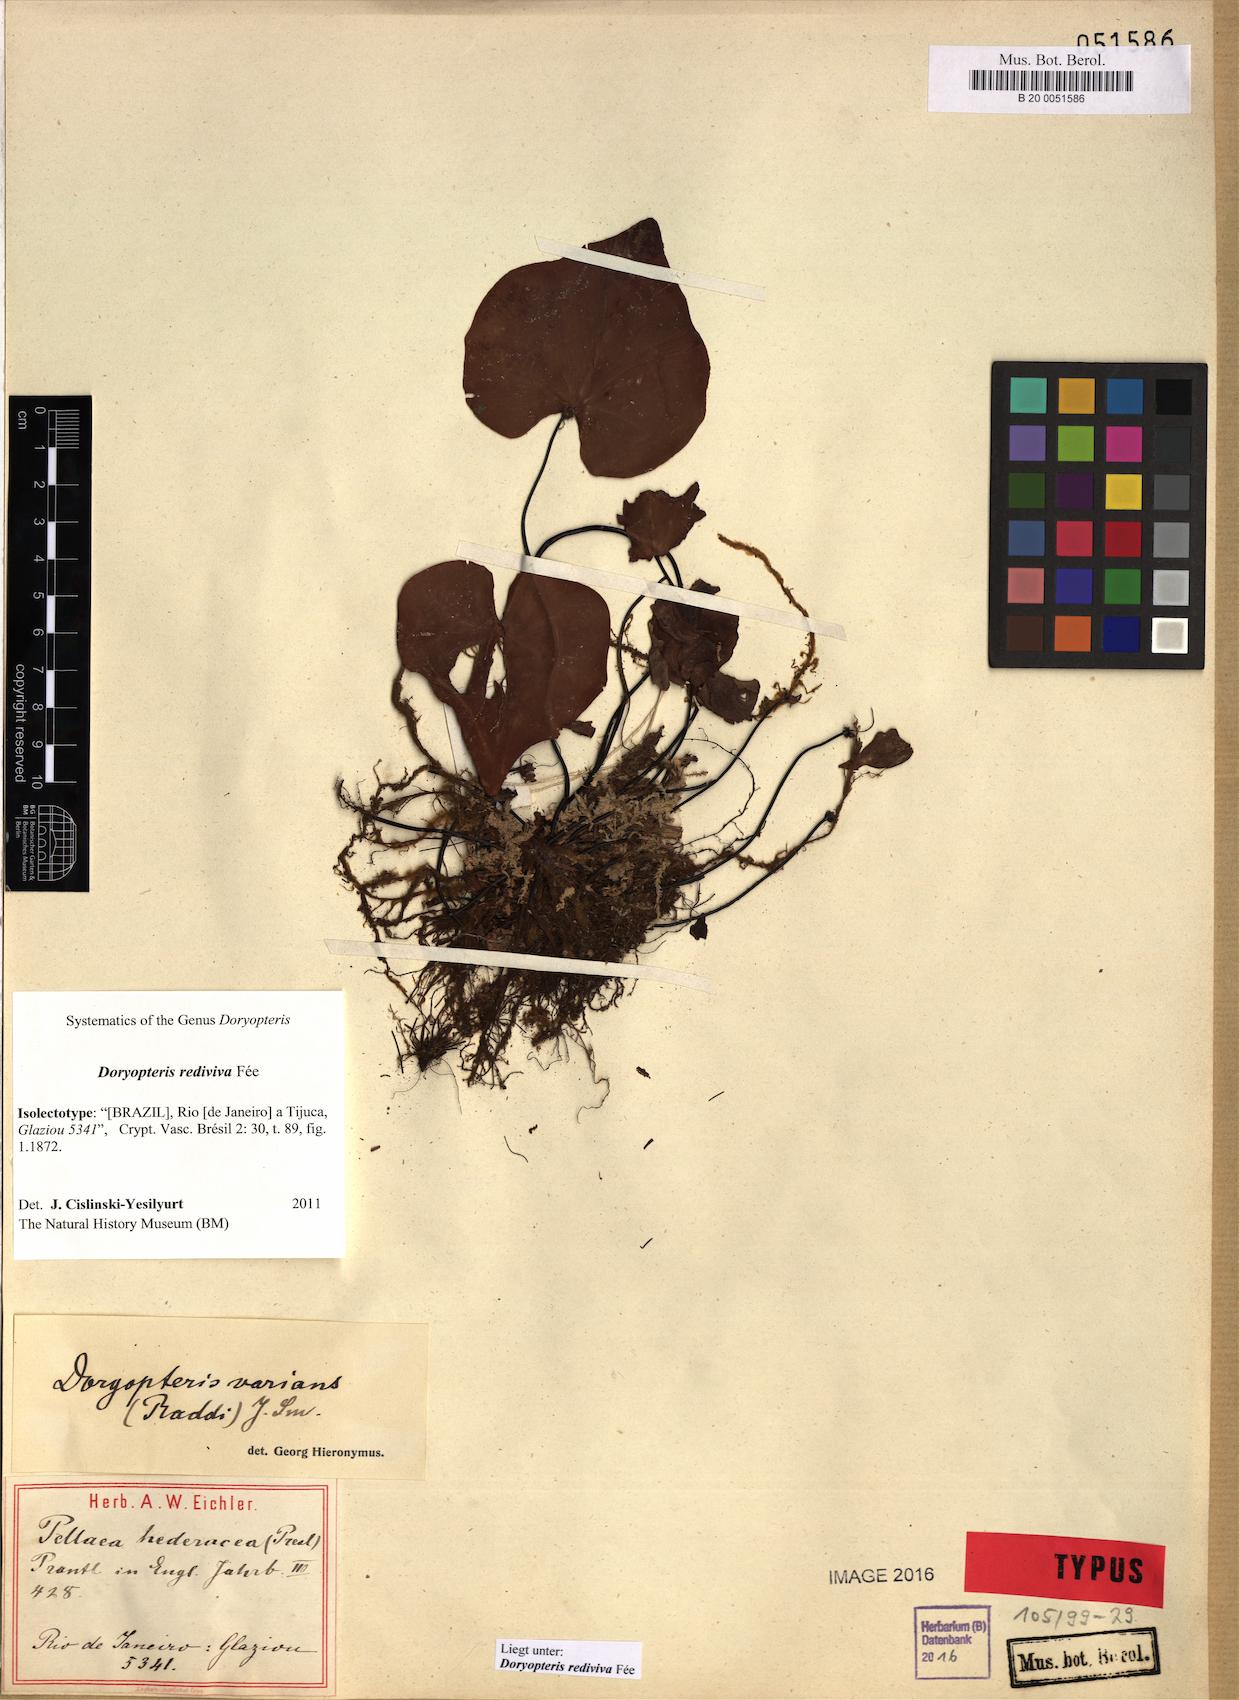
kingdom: Plantae
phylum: Tracheophyta
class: Polypodiopsida
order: Polypodiales
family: Pteridaceae
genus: Doryopteris
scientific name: Doryopteris rediviva
